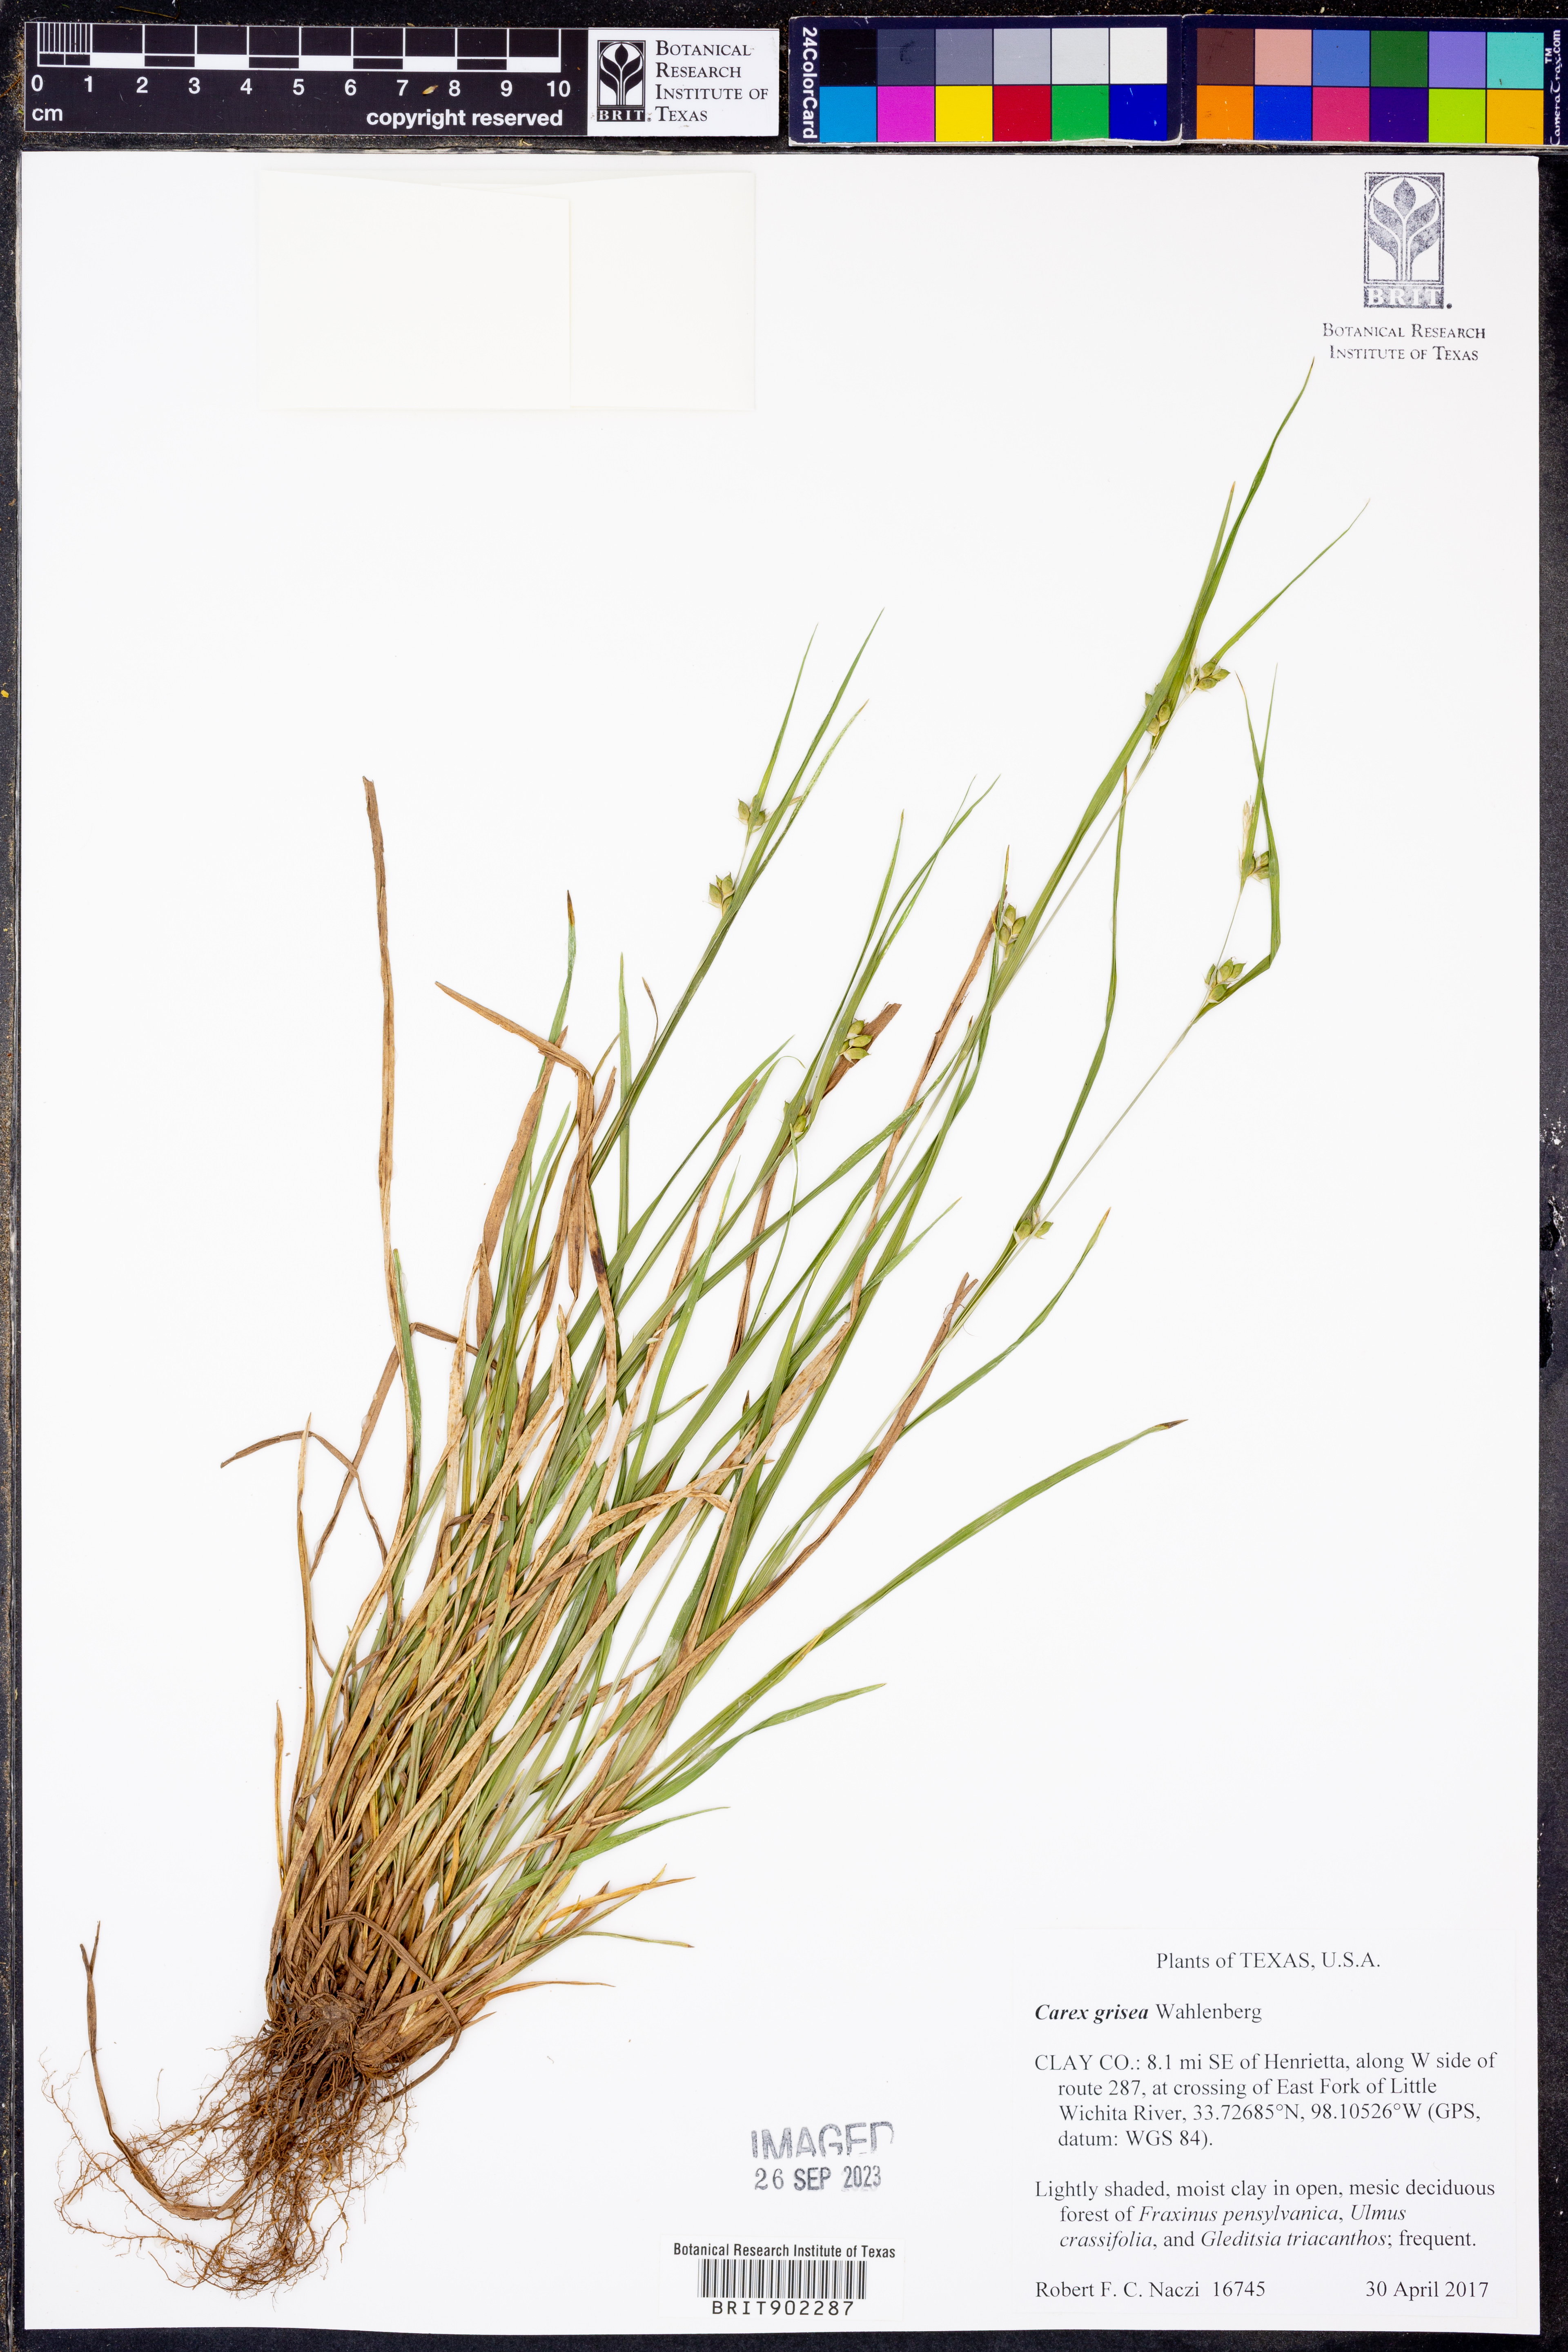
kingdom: Plantae
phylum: Tracheophyta
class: Liliopsida
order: Poales
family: Cyperaceae
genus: Carex
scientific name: Carex grisea
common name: Eastern narrow-leaved sedge
